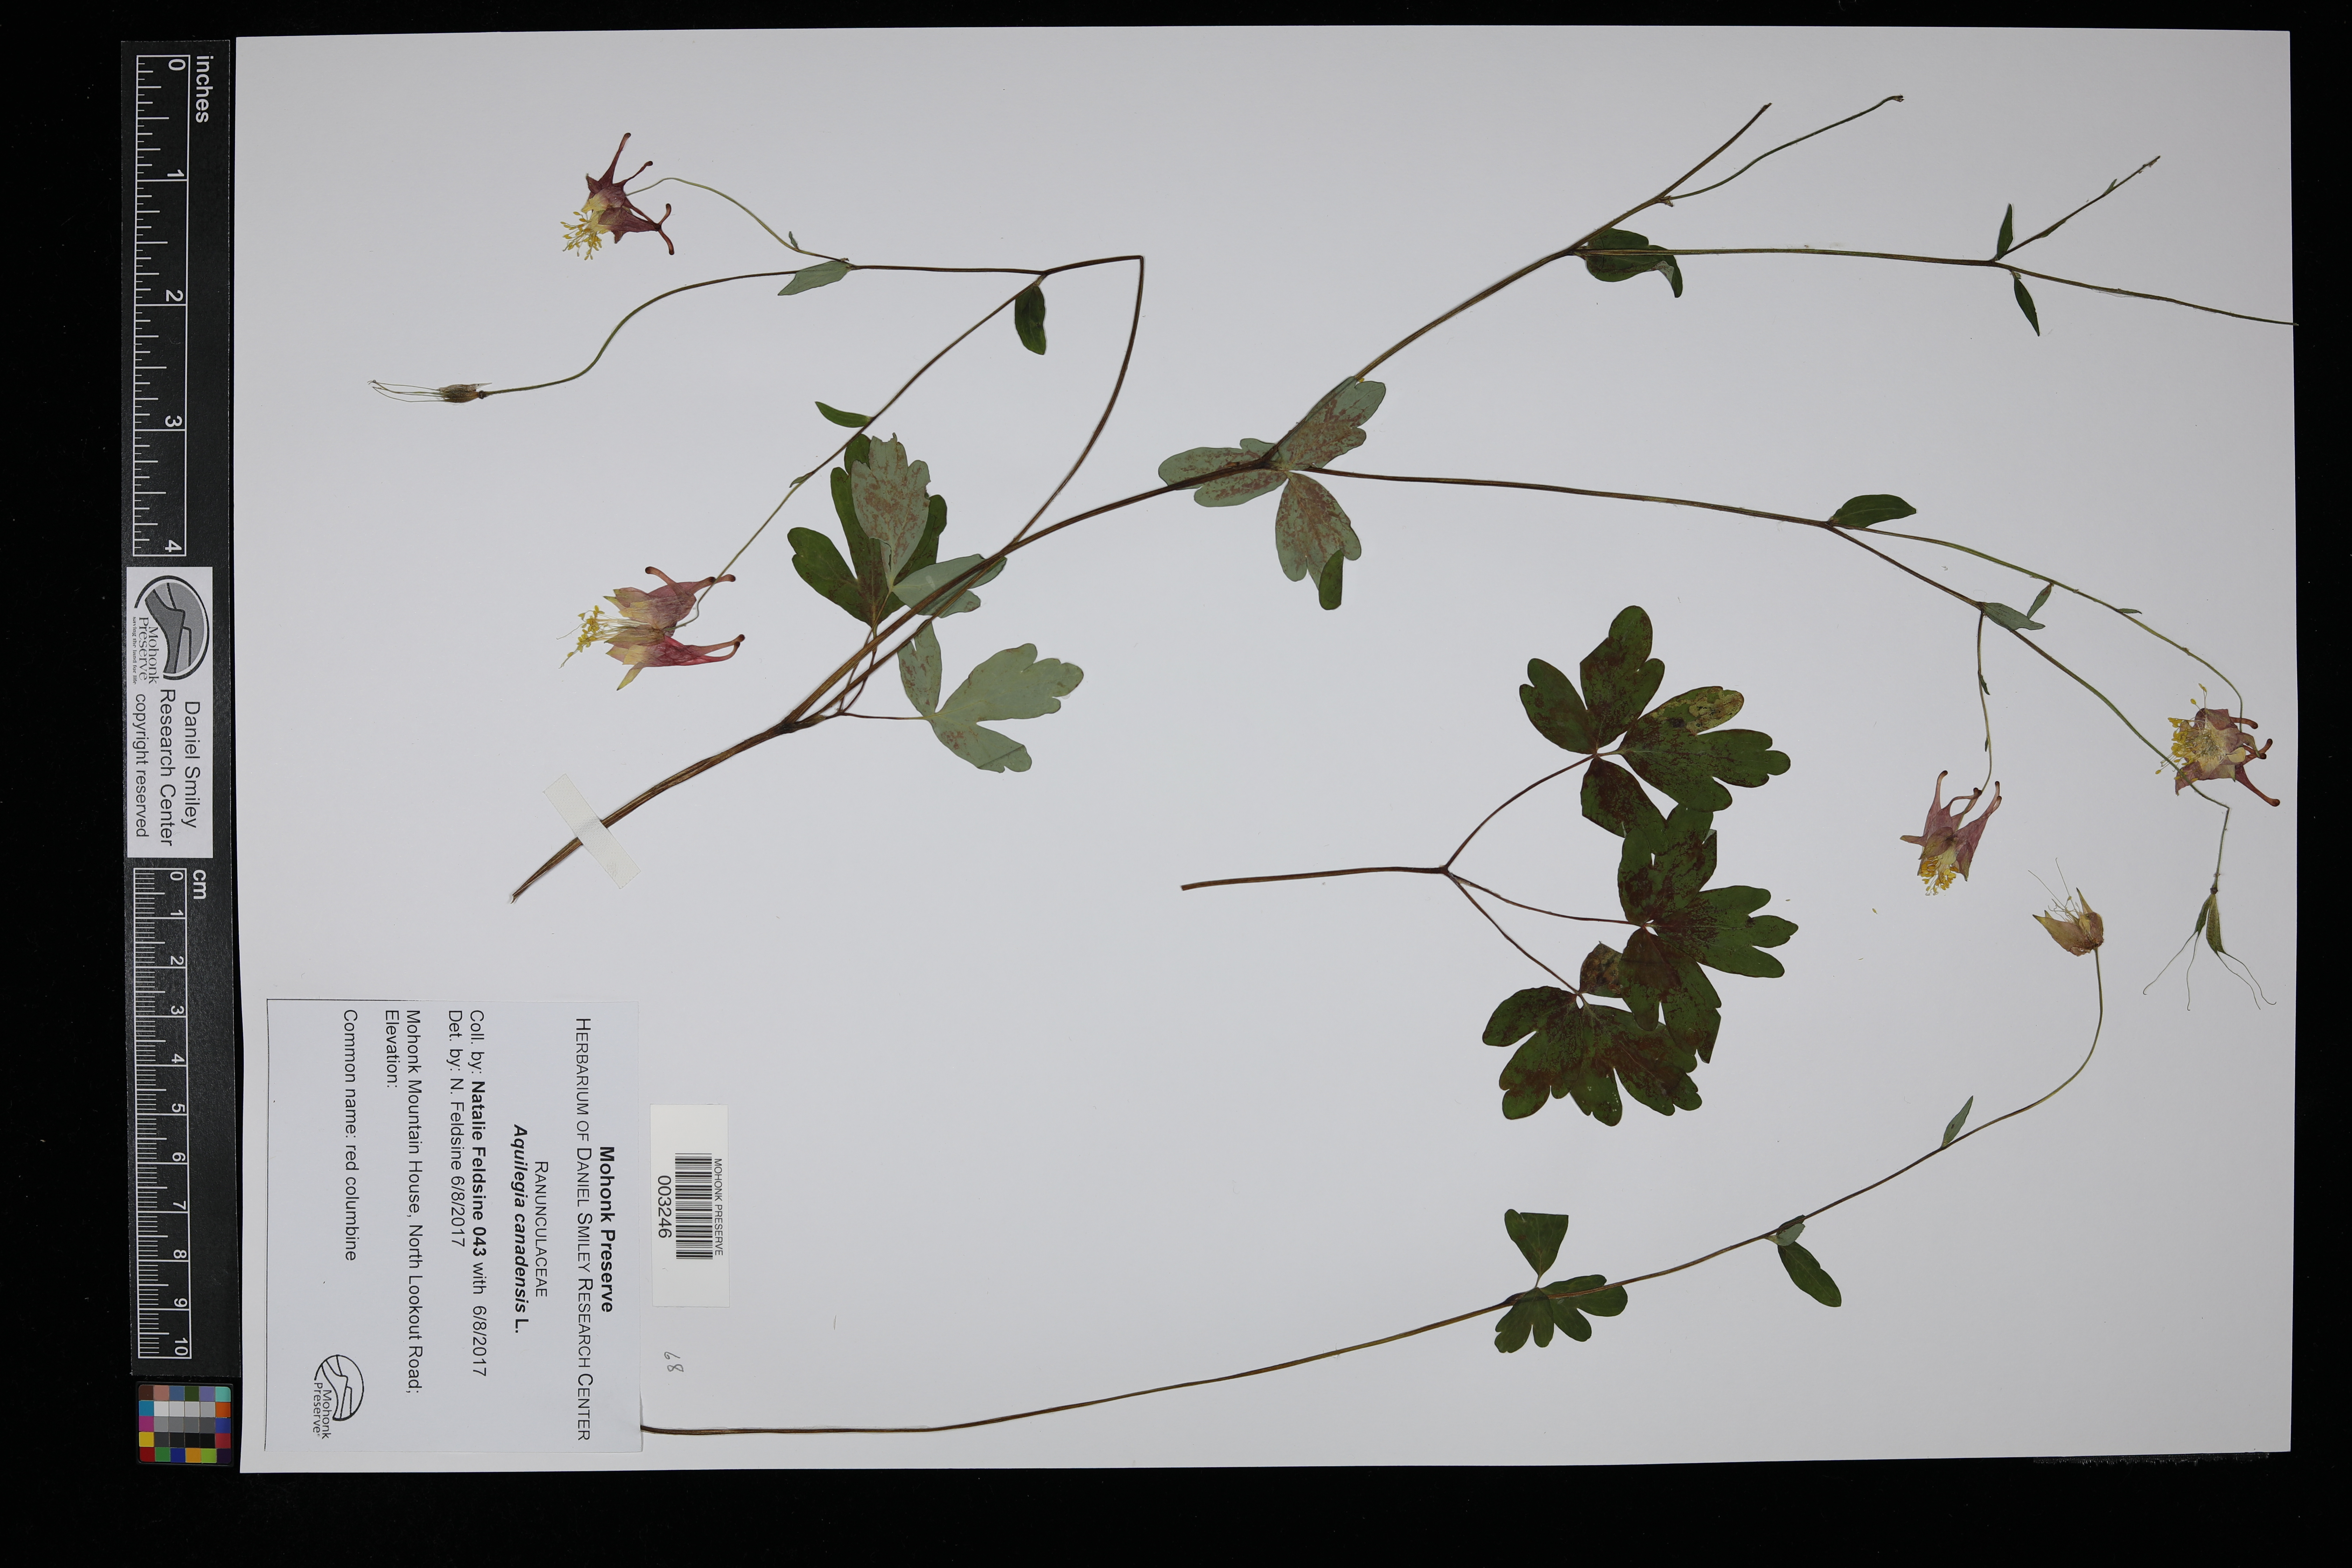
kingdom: Plantae
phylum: Tracheophyta
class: Magnoliopsida
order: Ranunculales
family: Ranunculaceae
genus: Aquilegia
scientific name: Aquilegia canadensis
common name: American columbine
